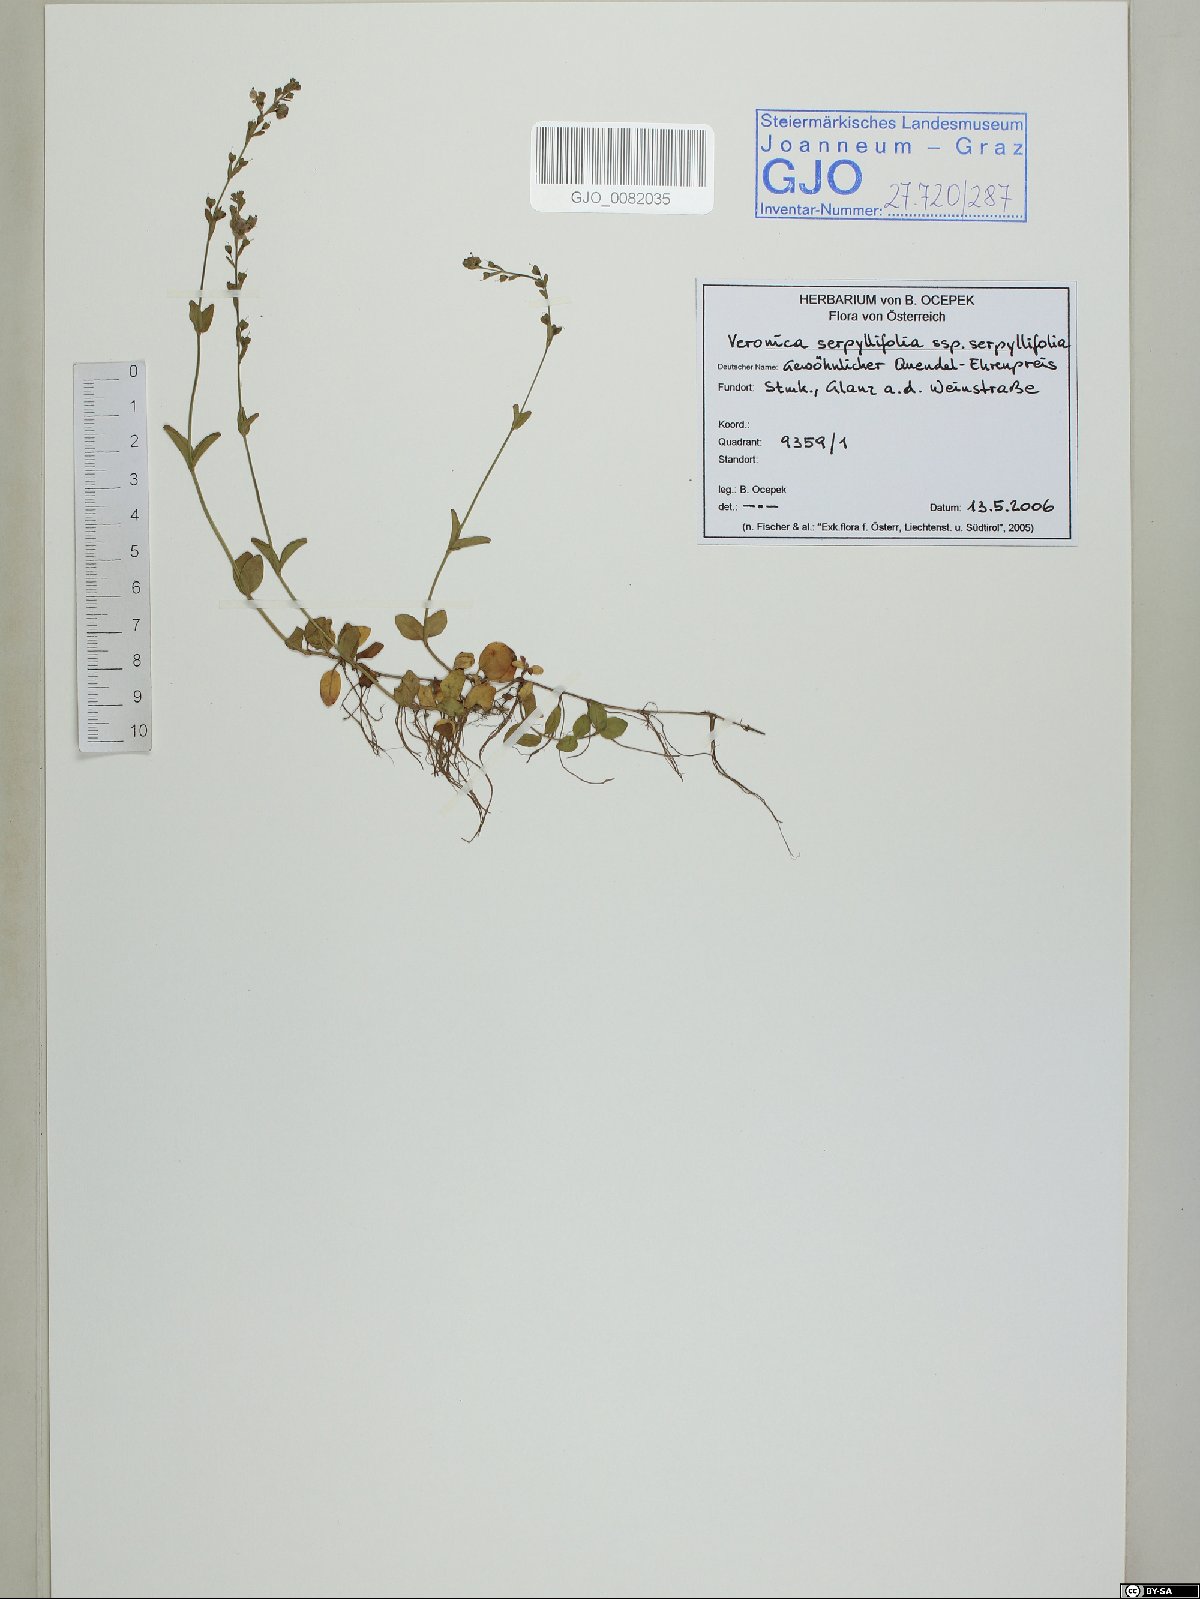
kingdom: Plantae
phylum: Tracheophyta
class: Magnoliopsida
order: Lamiales
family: Plantaginaceae
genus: Veronica
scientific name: Veronica serpyllifolia
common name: Thyme-leaved speedwell
